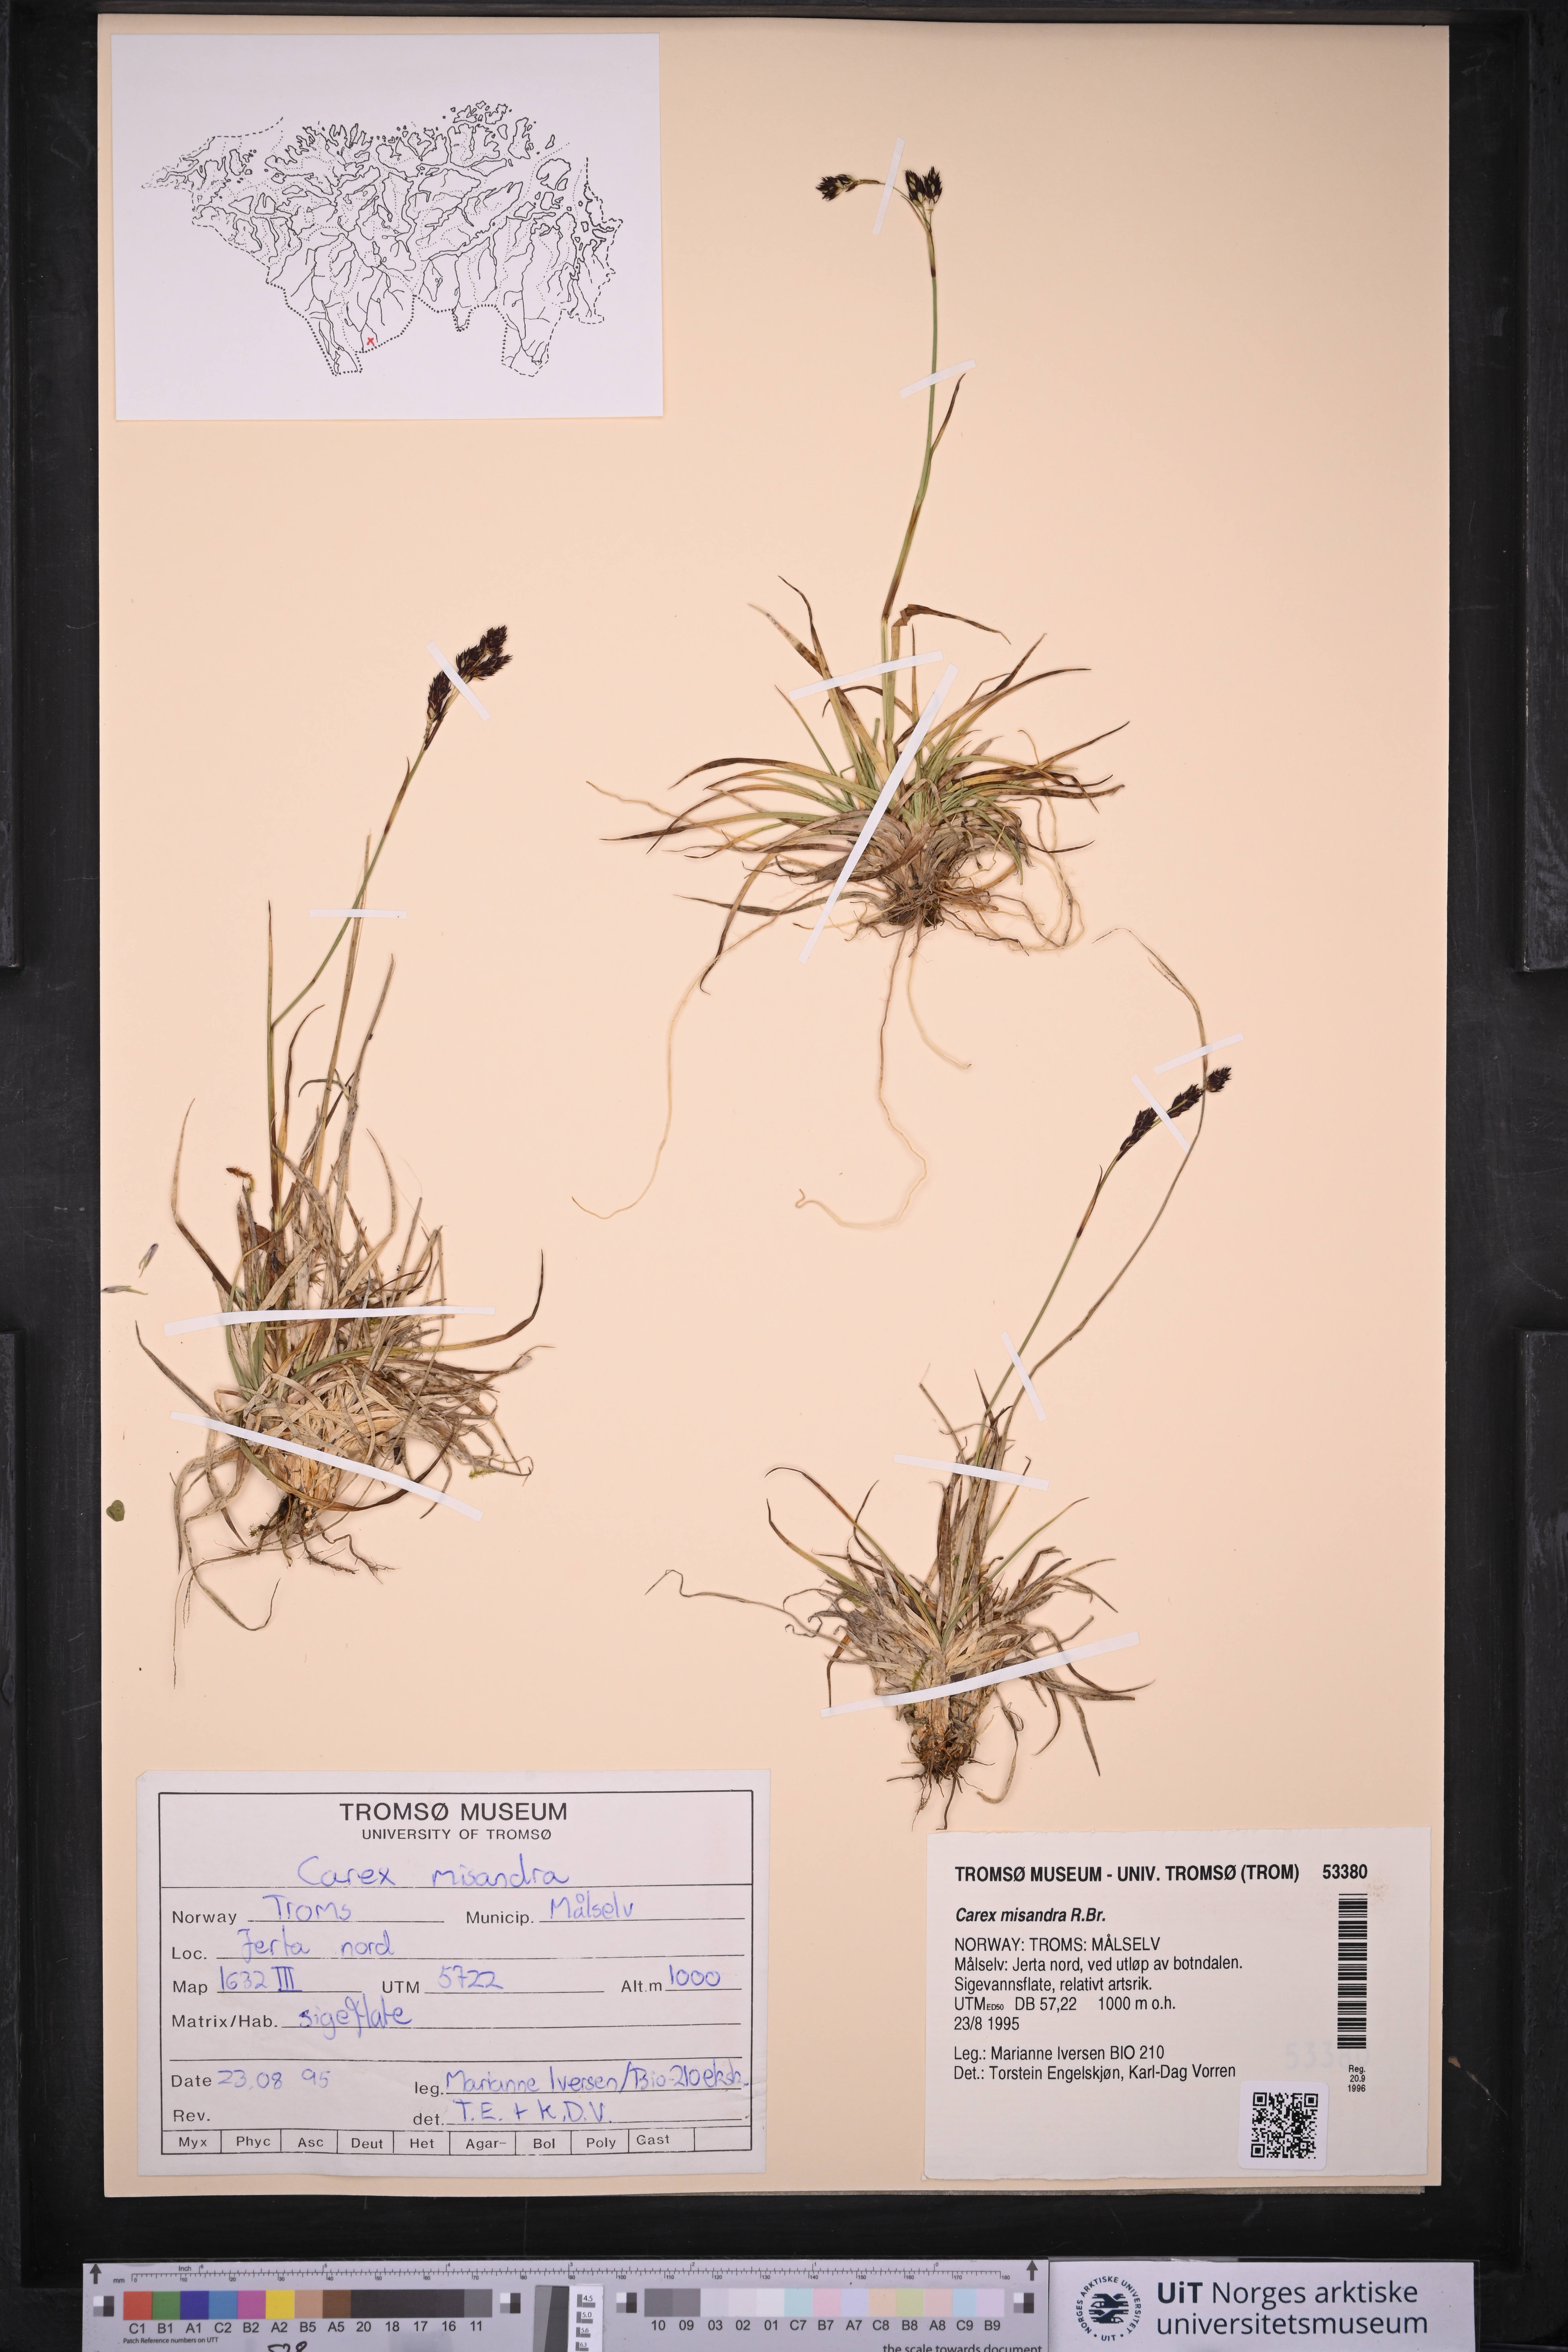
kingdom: Plantae
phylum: Tracheophyta
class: Liliopsida
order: Poales
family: Cyperaceae
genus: Carex
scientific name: Carex fuliginosa
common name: Few-flowered sedge
